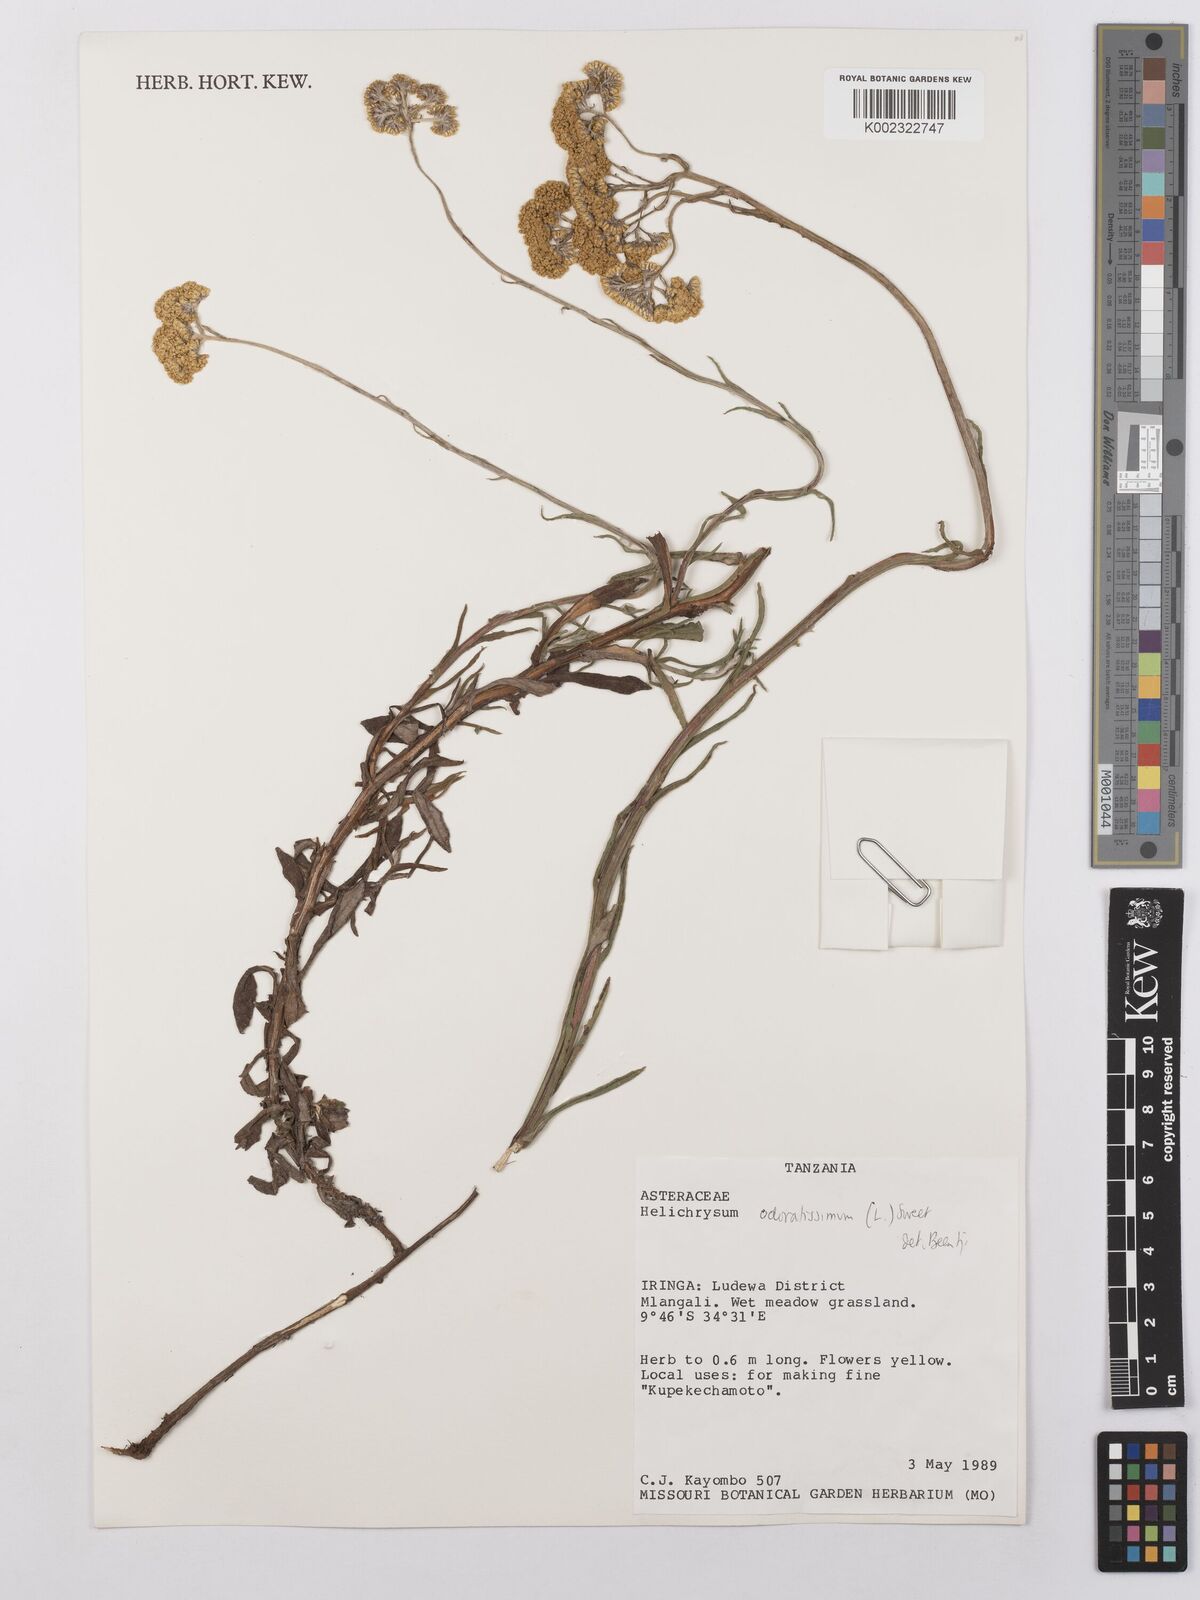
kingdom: Plantae
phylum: Tracheophyta
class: Magnoliopsida
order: Asterales
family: Asteraceae
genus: Helichrysum
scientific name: Helichrysum odoratissimum
